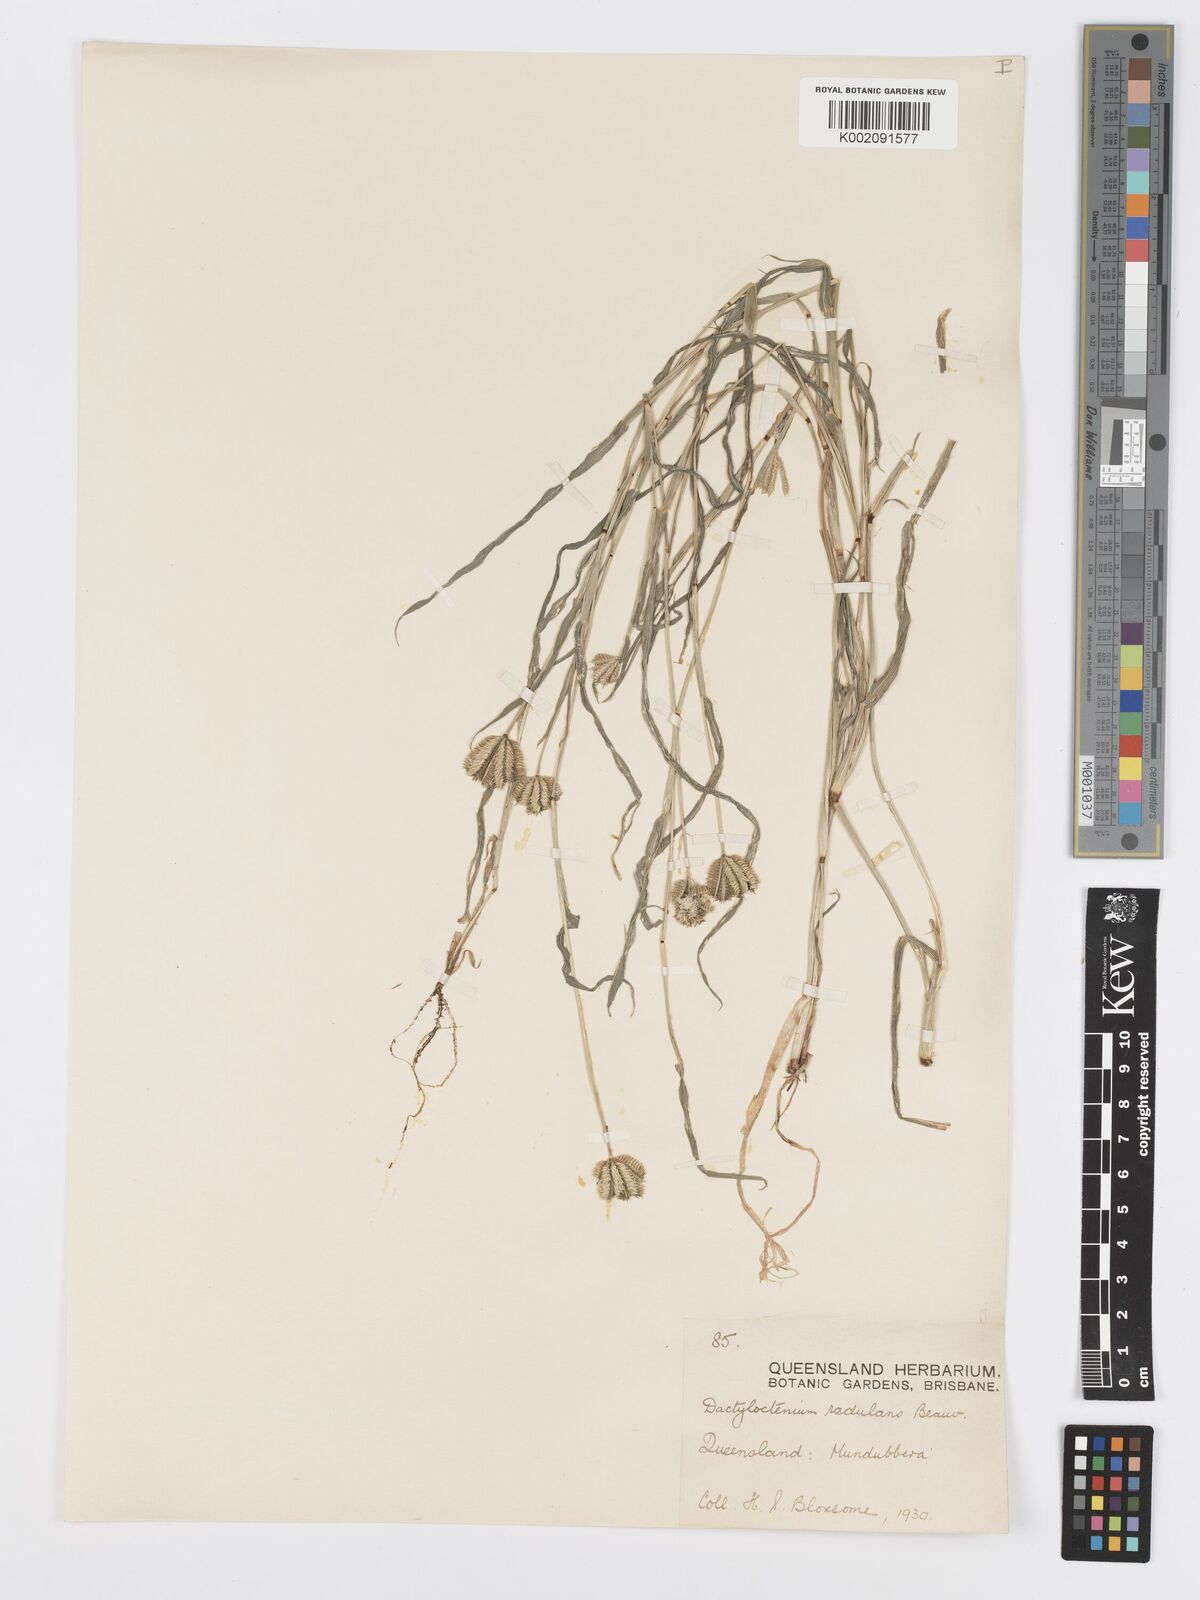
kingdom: Plantae
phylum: Tracheophyta
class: Liliopsida
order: Poales
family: Poaceae
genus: Dactyloctenium
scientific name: Dactyloctenium radulans
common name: Button-grass
